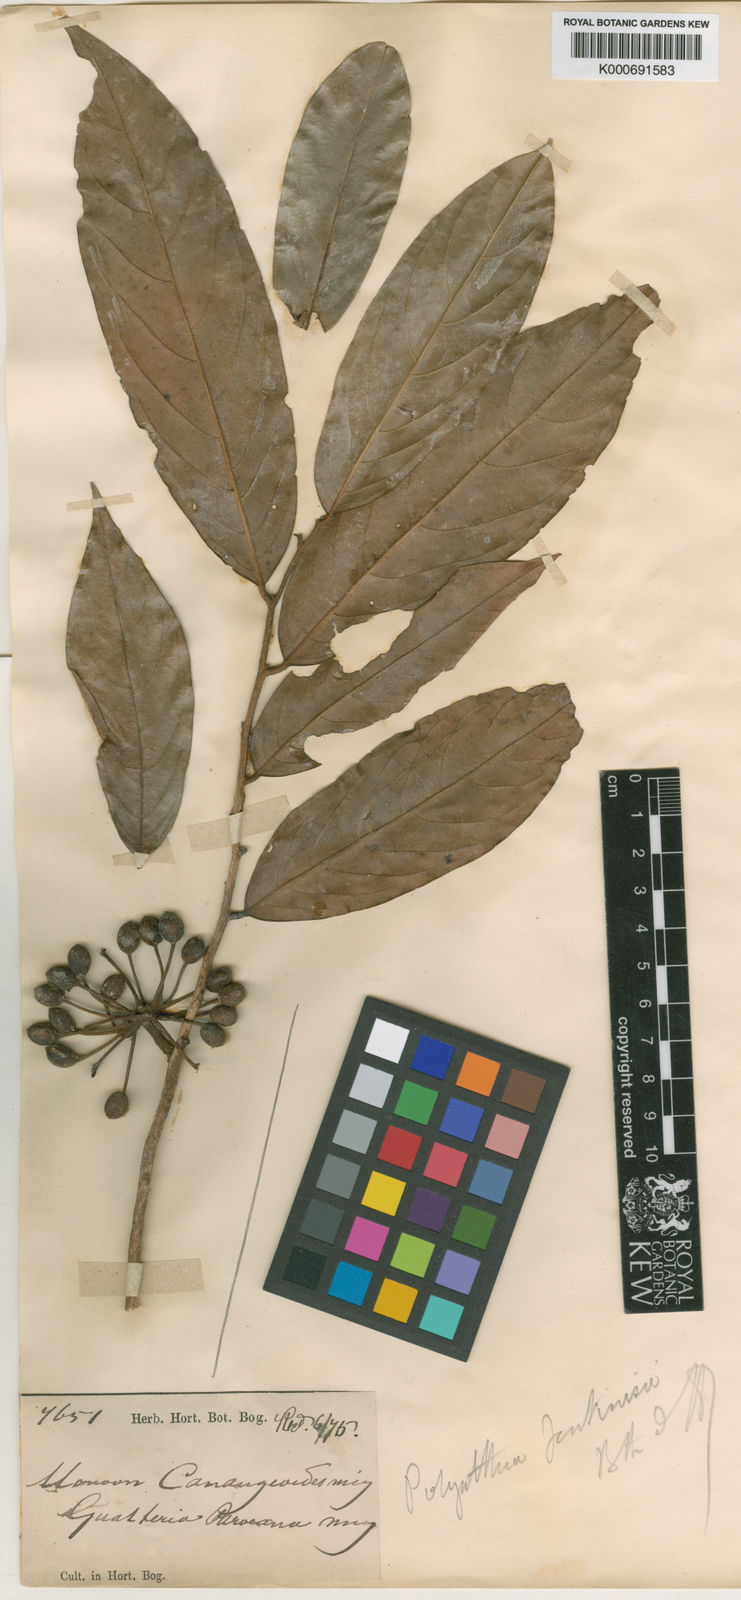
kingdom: Plantae
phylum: Tracheophyta
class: Magnoliopsida
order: Magnoliales
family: Annonaceae
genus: Hubera
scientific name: Hubera rumphii
